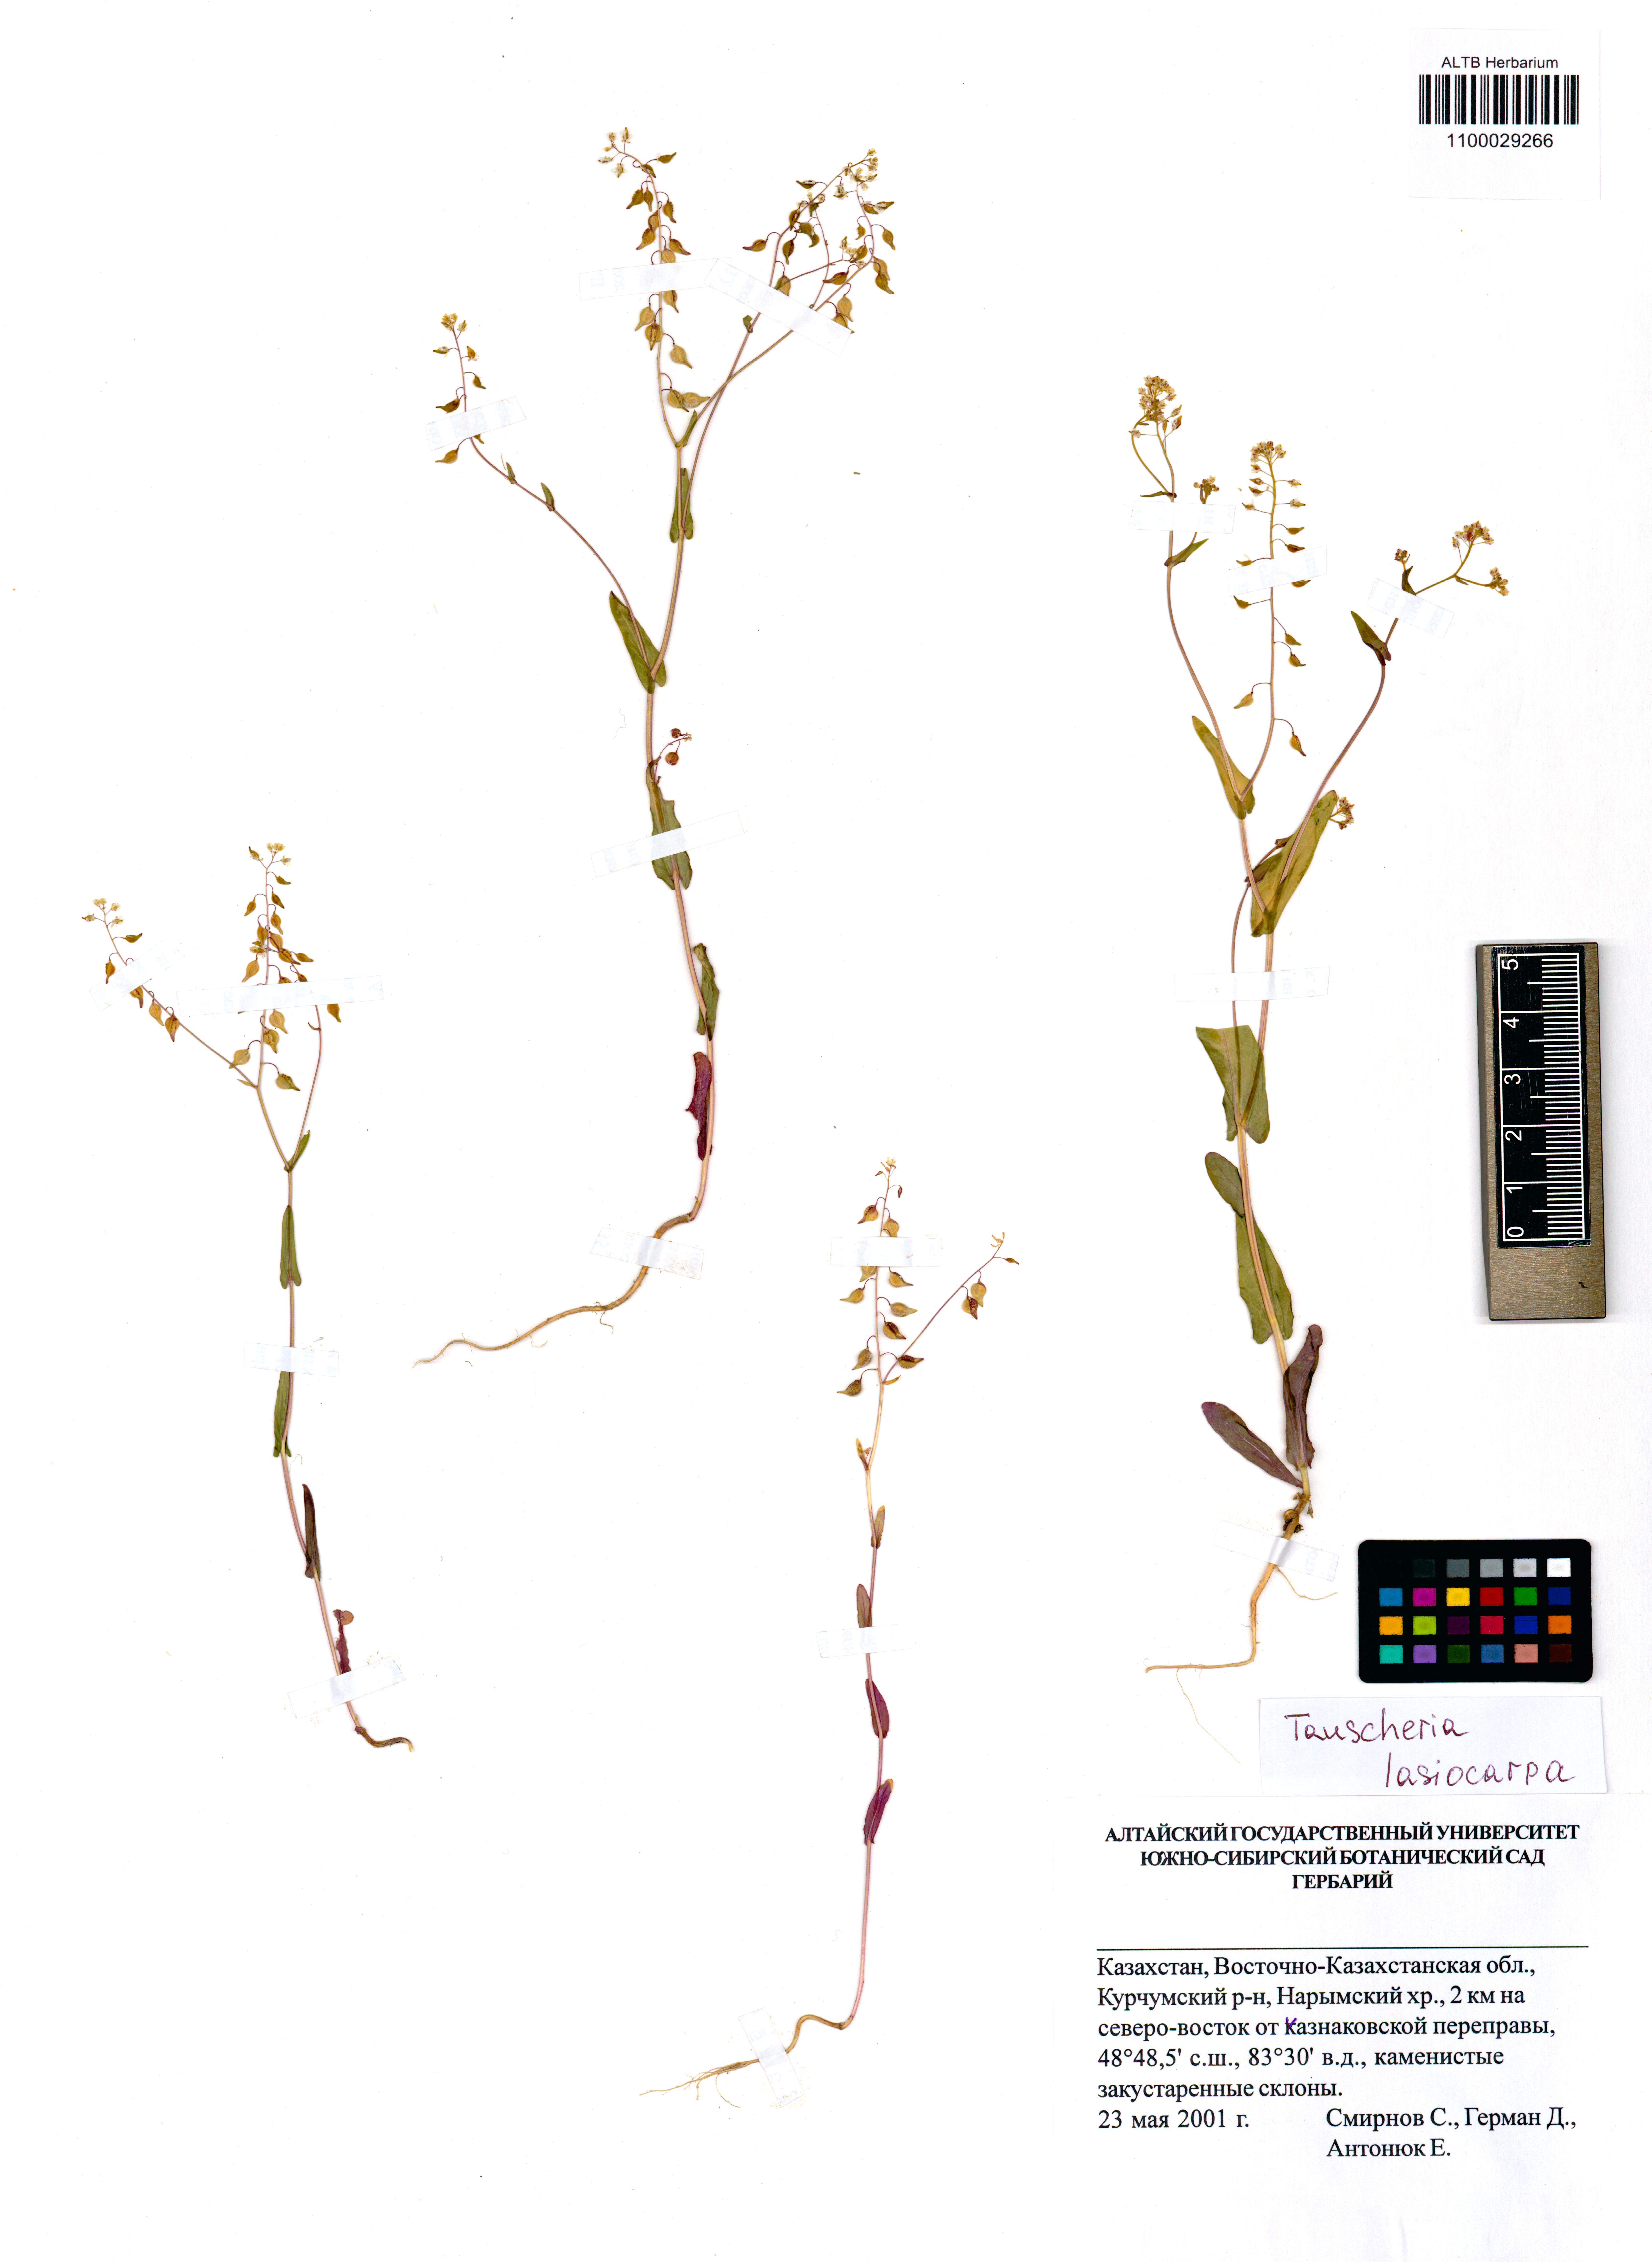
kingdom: Plantae
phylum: Tracheophyta
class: Magnoliopsida
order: Brassicales
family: Brassicaceae
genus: Tauscheria
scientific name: Tauscheria lasiocarpa
